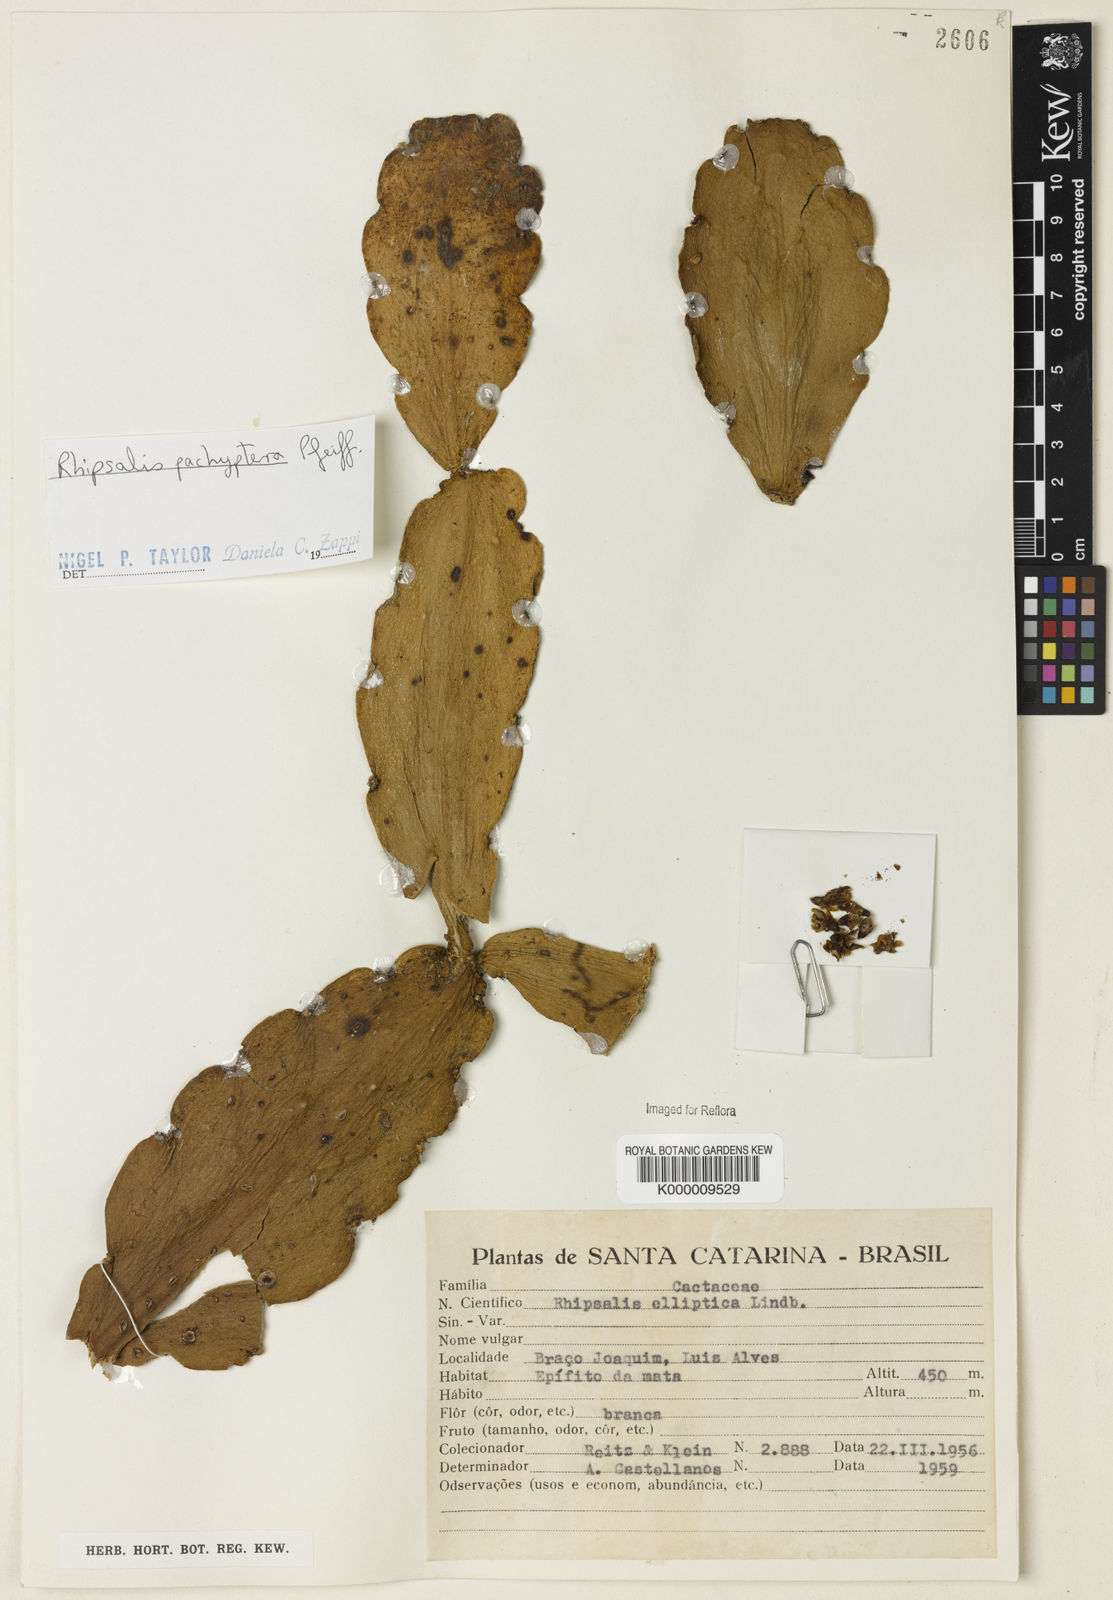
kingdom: Plantae
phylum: Tracheophyta
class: Magnoliopsida
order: Caryophyllales
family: Cactaceae
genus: Rhipsalis
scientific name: Rhipsalis pachyptera
